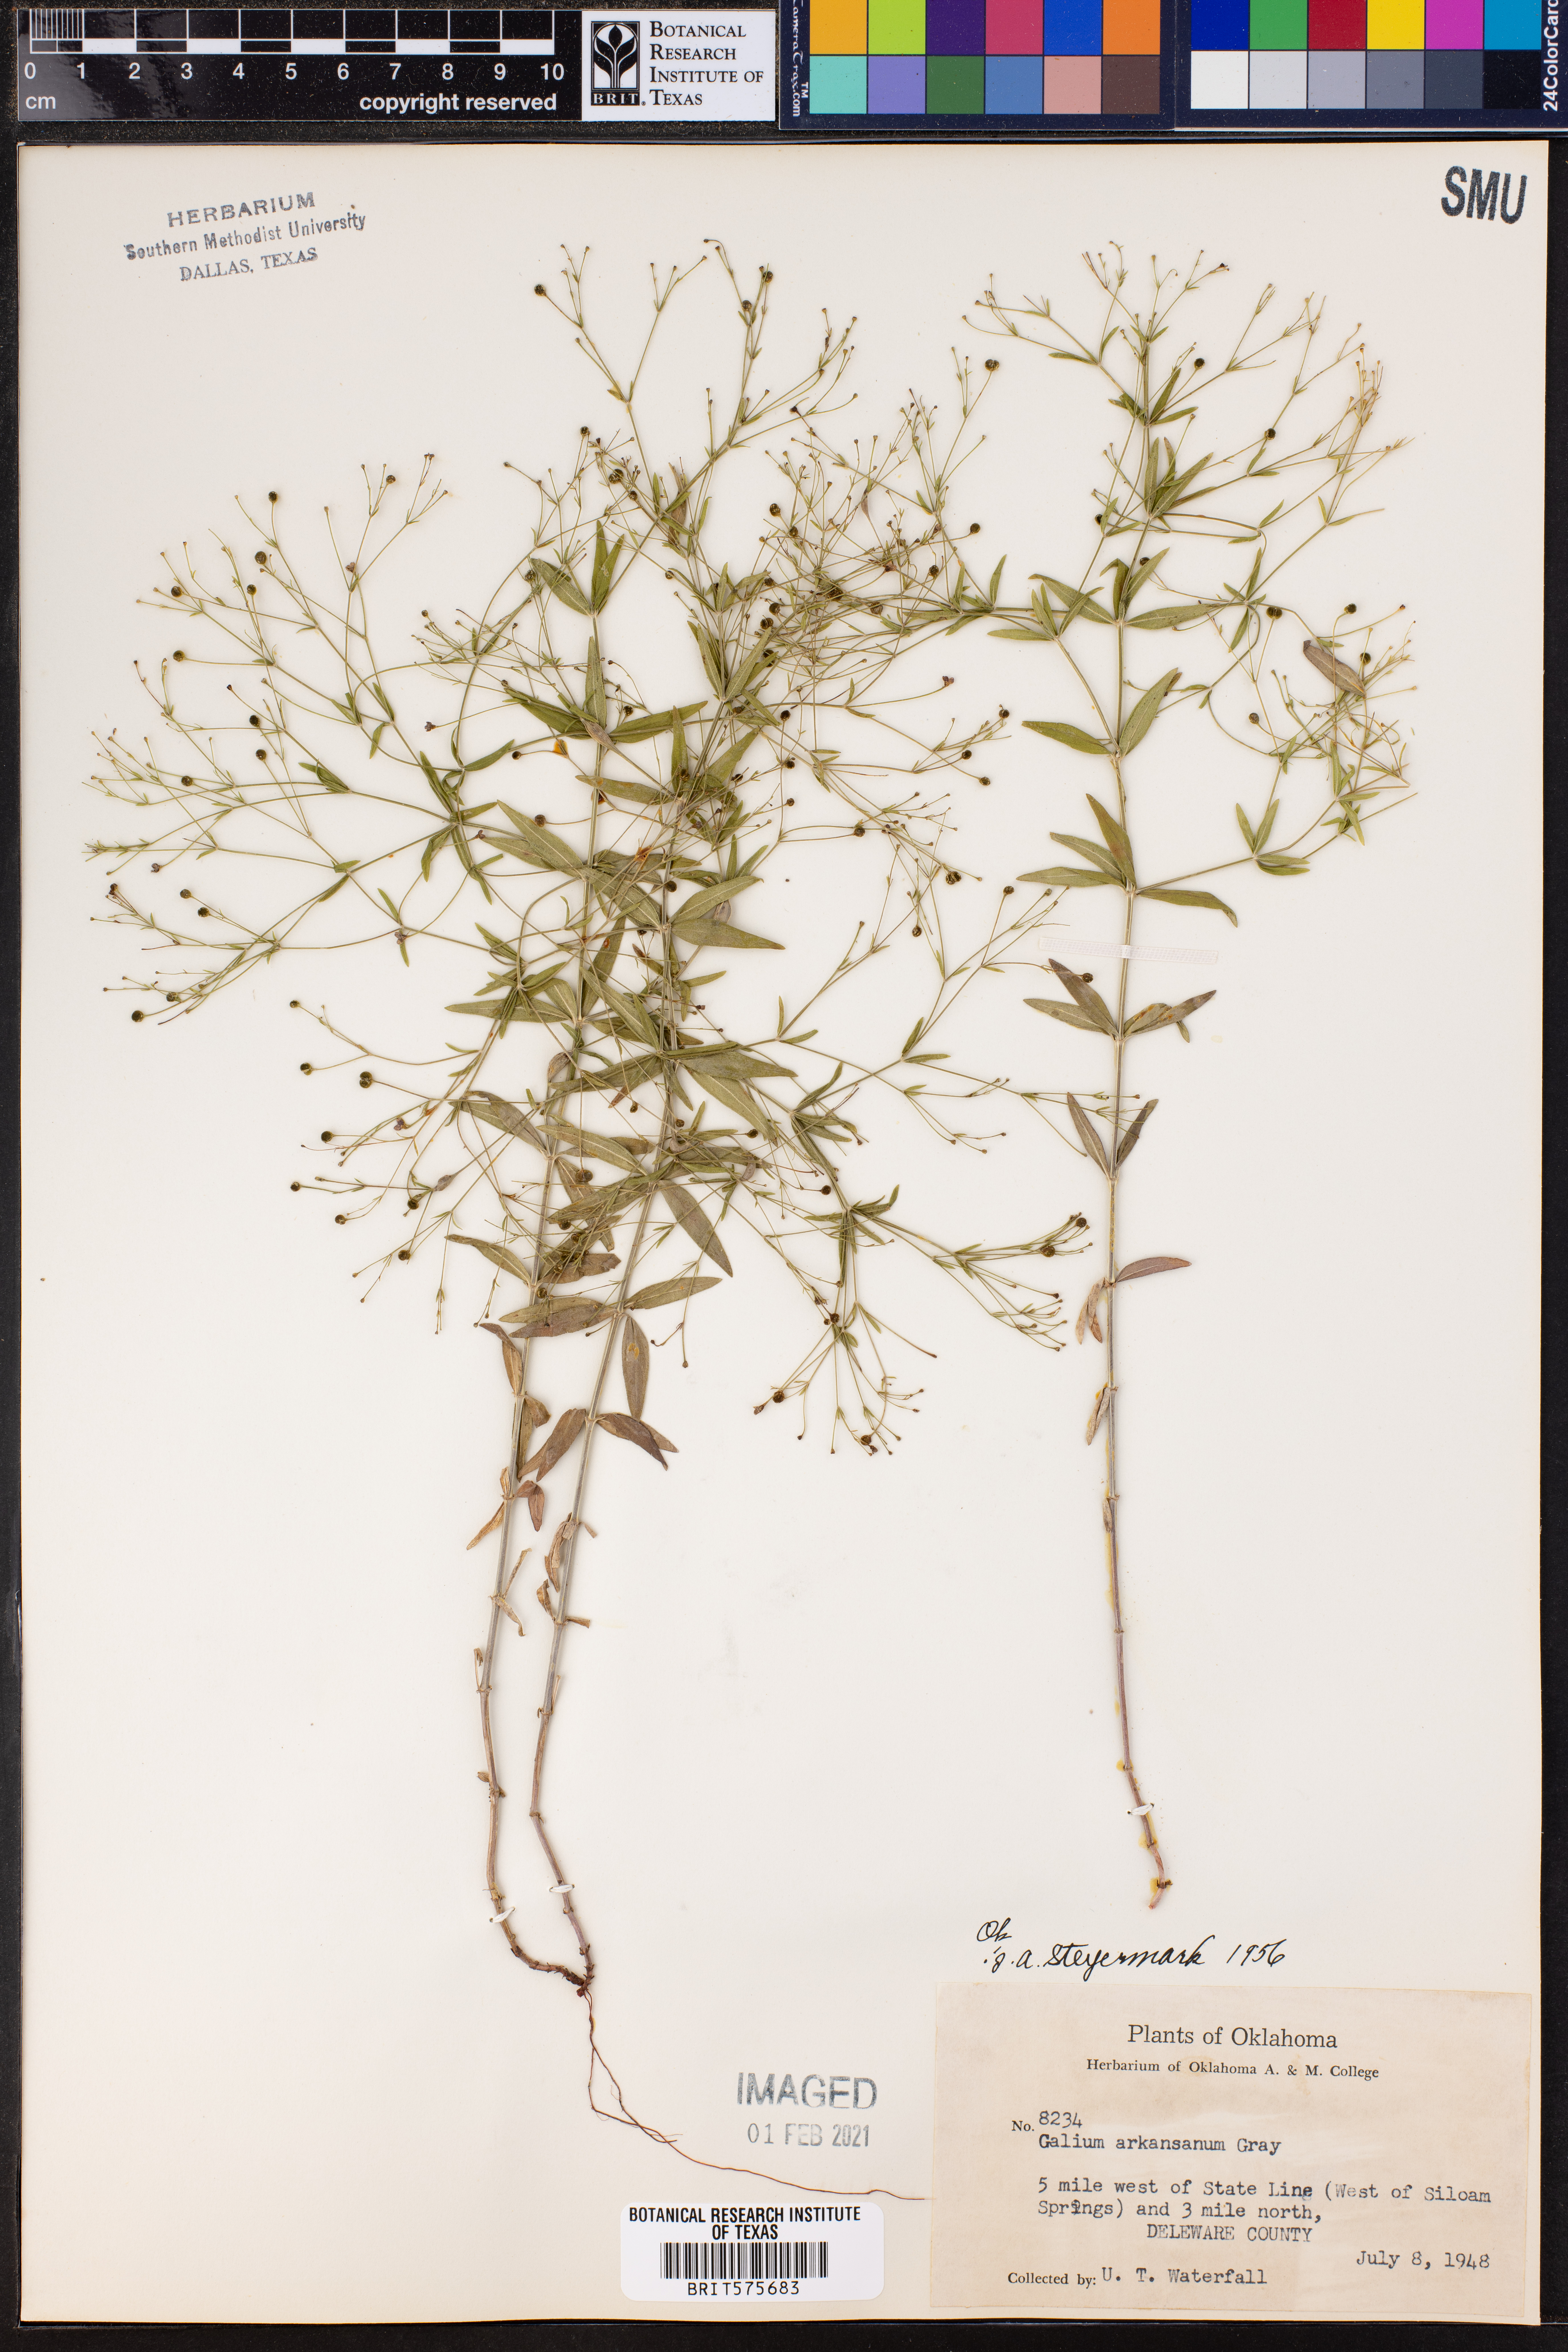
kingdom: Plantae
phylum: Tracheophyta
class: Magnoliopsida
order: Gentianales
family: Rubiaceae
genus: Galium
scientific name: Galium arkansanum
